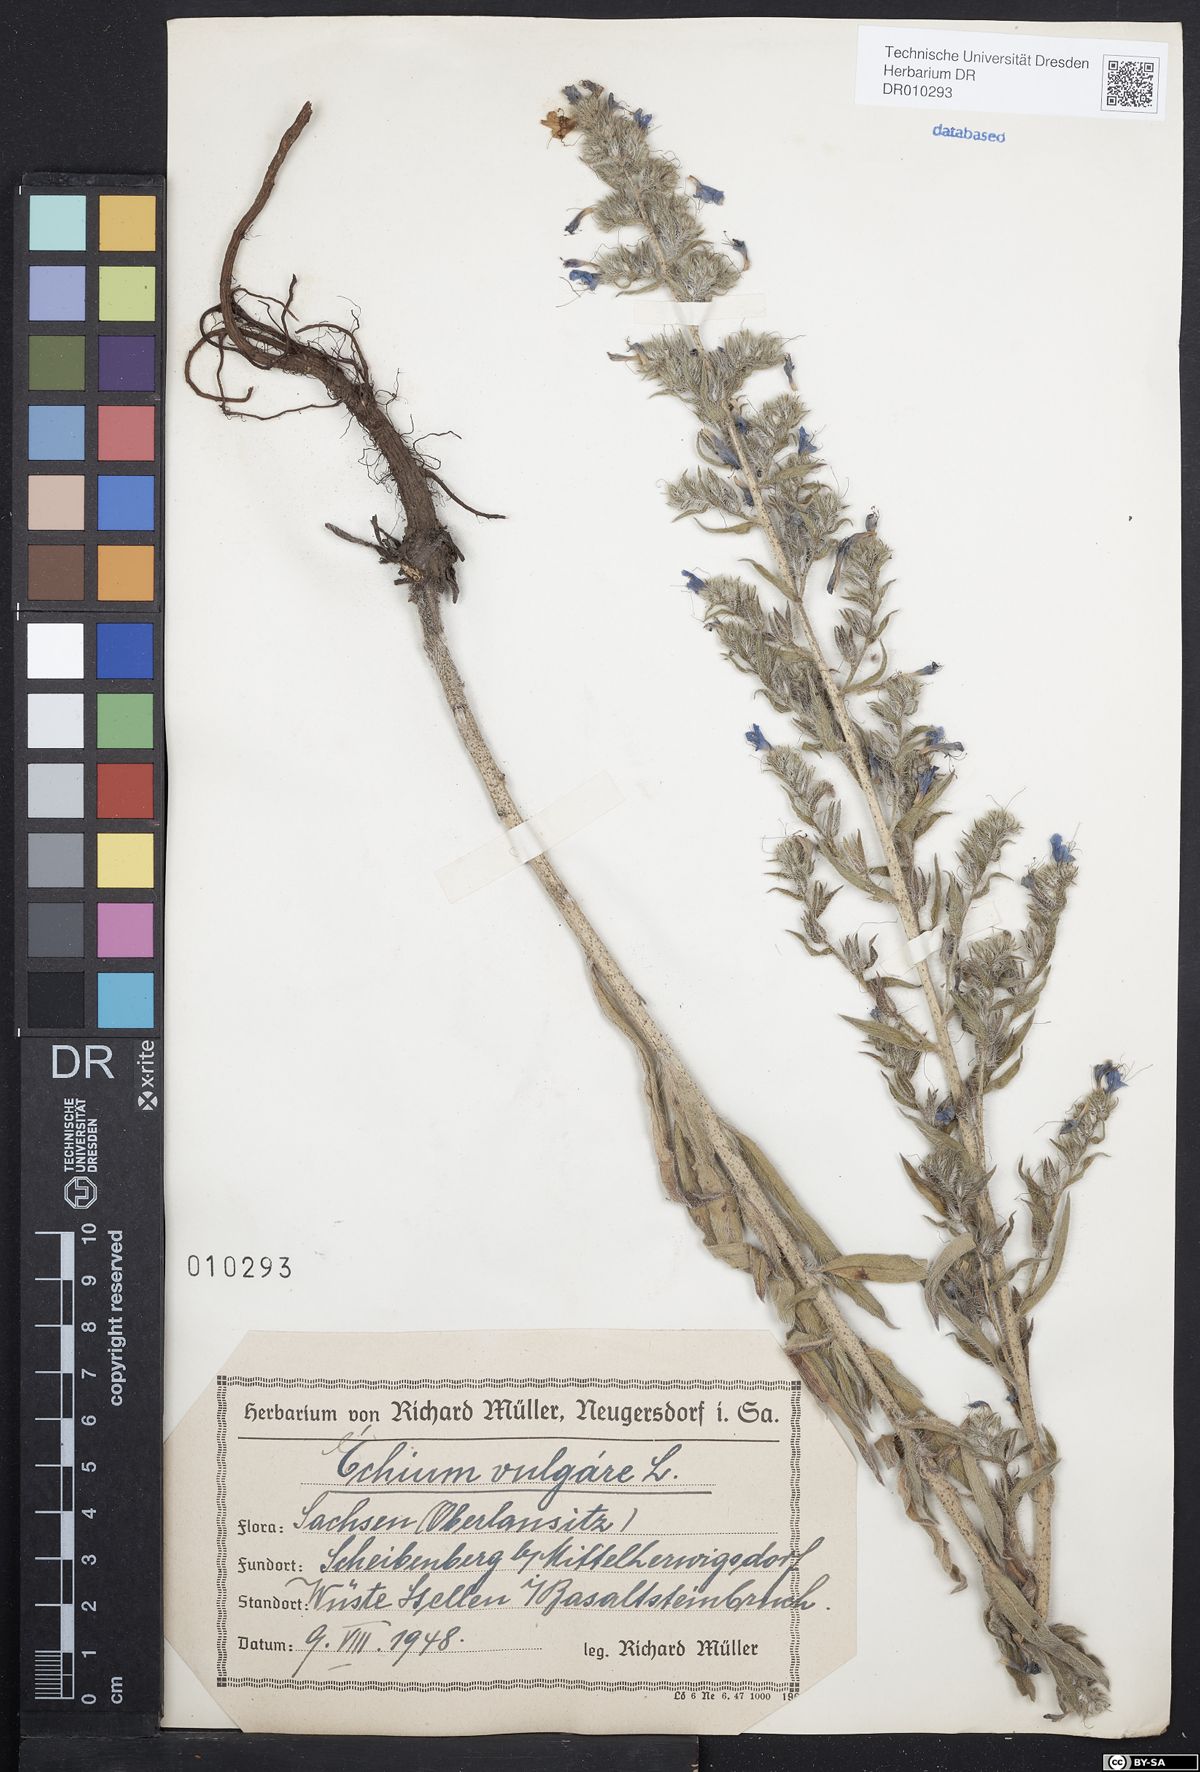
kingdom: Plantae
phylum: Tracheophyta
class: Magnoliopsida
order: Boraginales
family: Boraginaceae
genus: Echium
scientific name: Echium vulgare
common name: Common viper's bugloss
